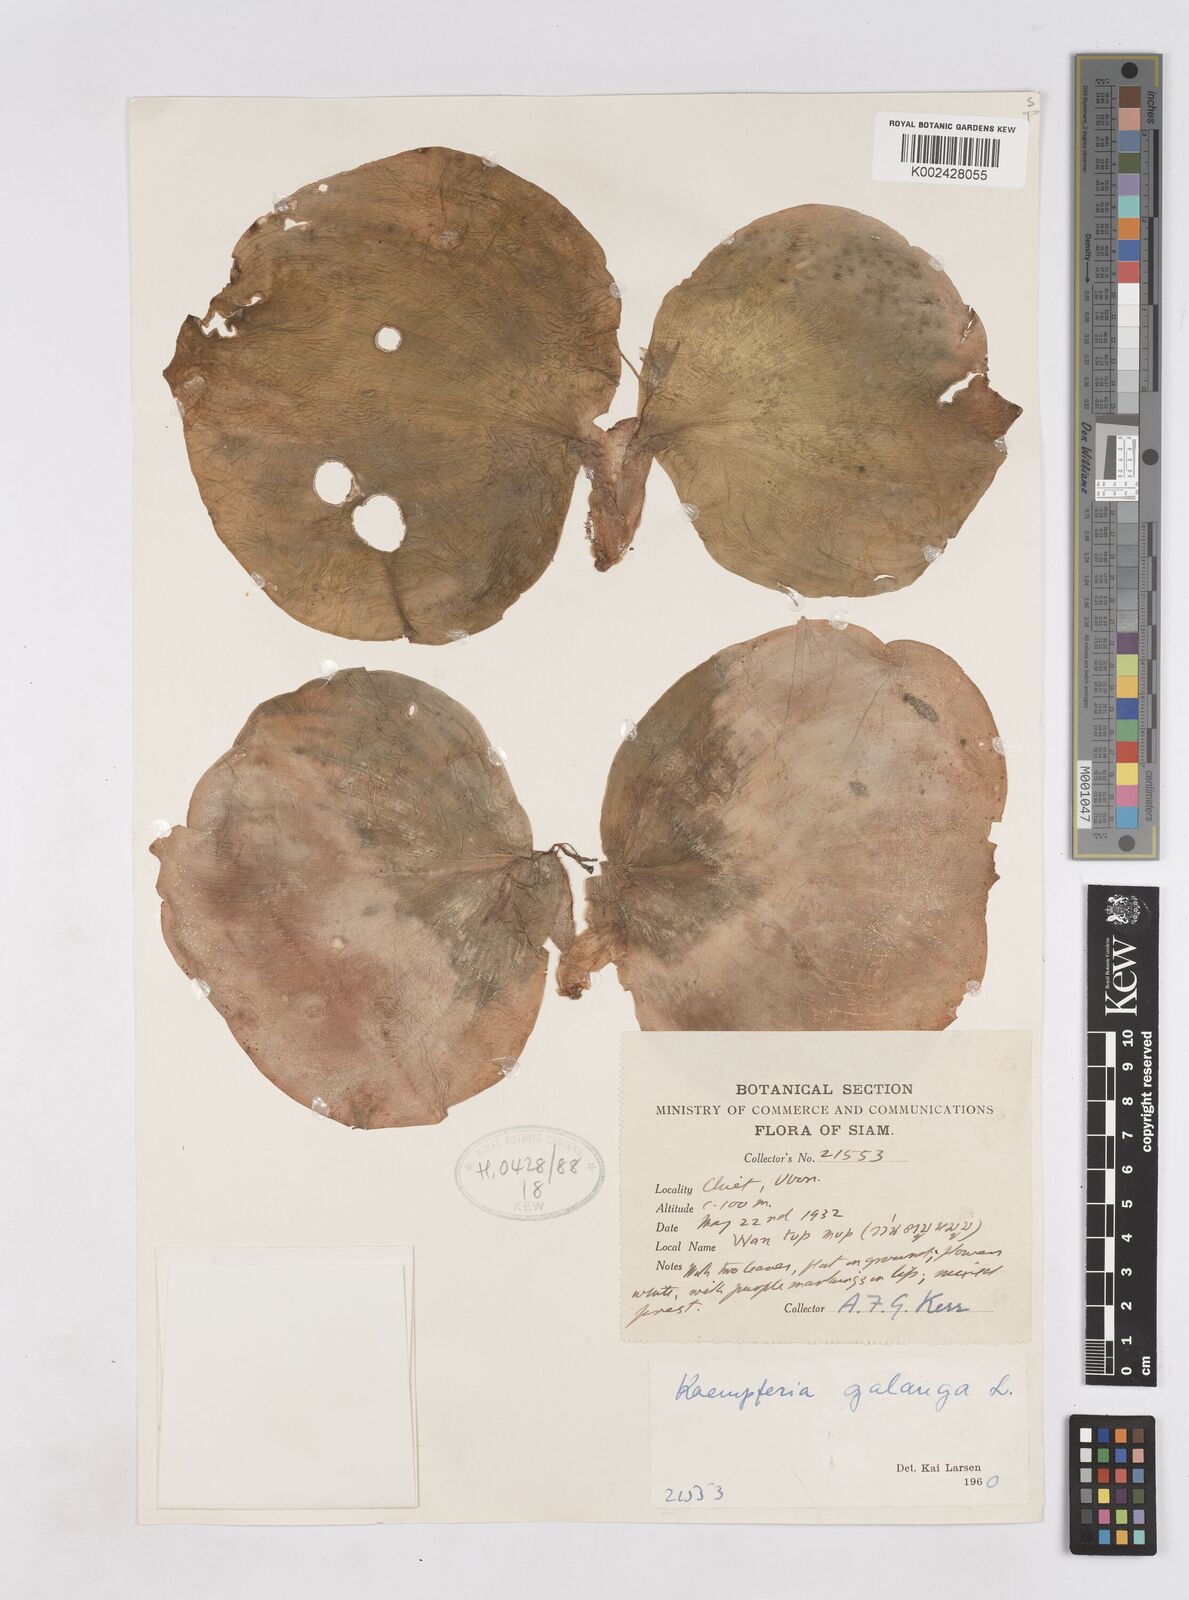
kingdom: Plantae
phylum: Tracheophyta
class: Liliopsida
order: Zingiberales
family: Zingiberaceae
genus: Kaempferia
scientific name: Kaempferia galanga
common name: Aromatic ginger
